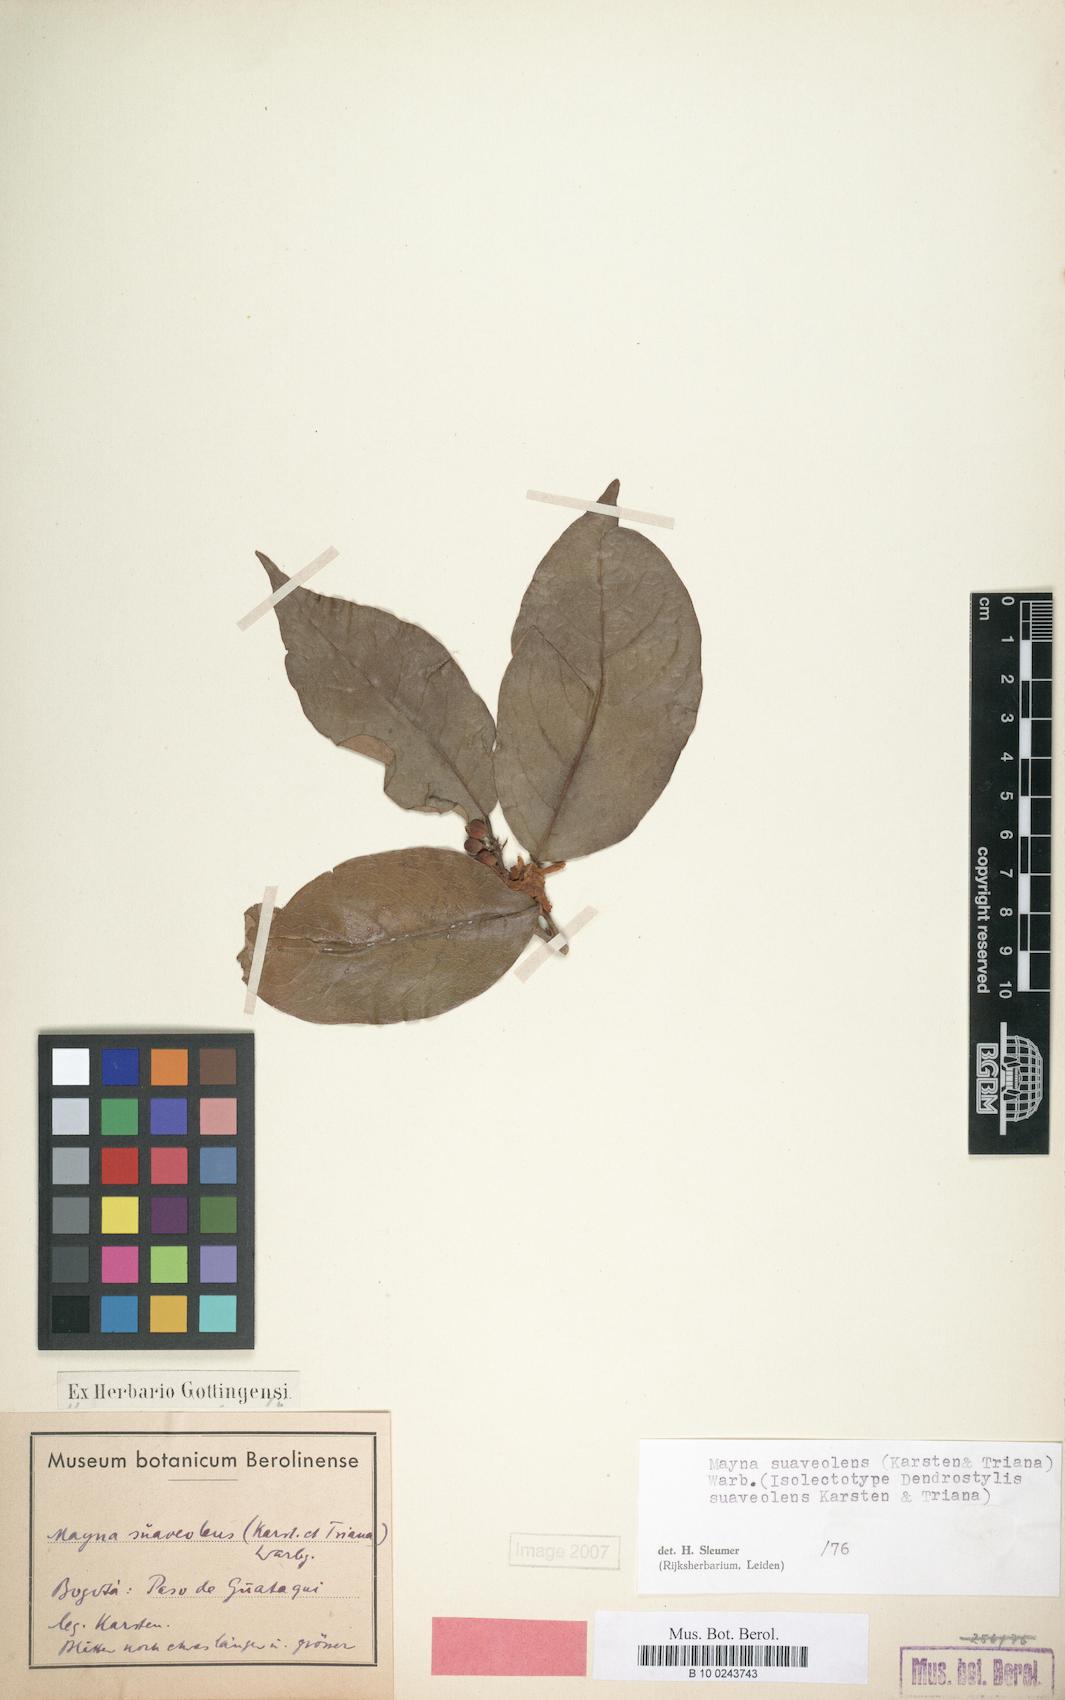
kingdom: Plantae
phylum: Tracheophyta
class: Magnoliopsida
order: Malpighiales
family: Achariaceae
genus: Mayna
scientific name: Mayna suaveolens
